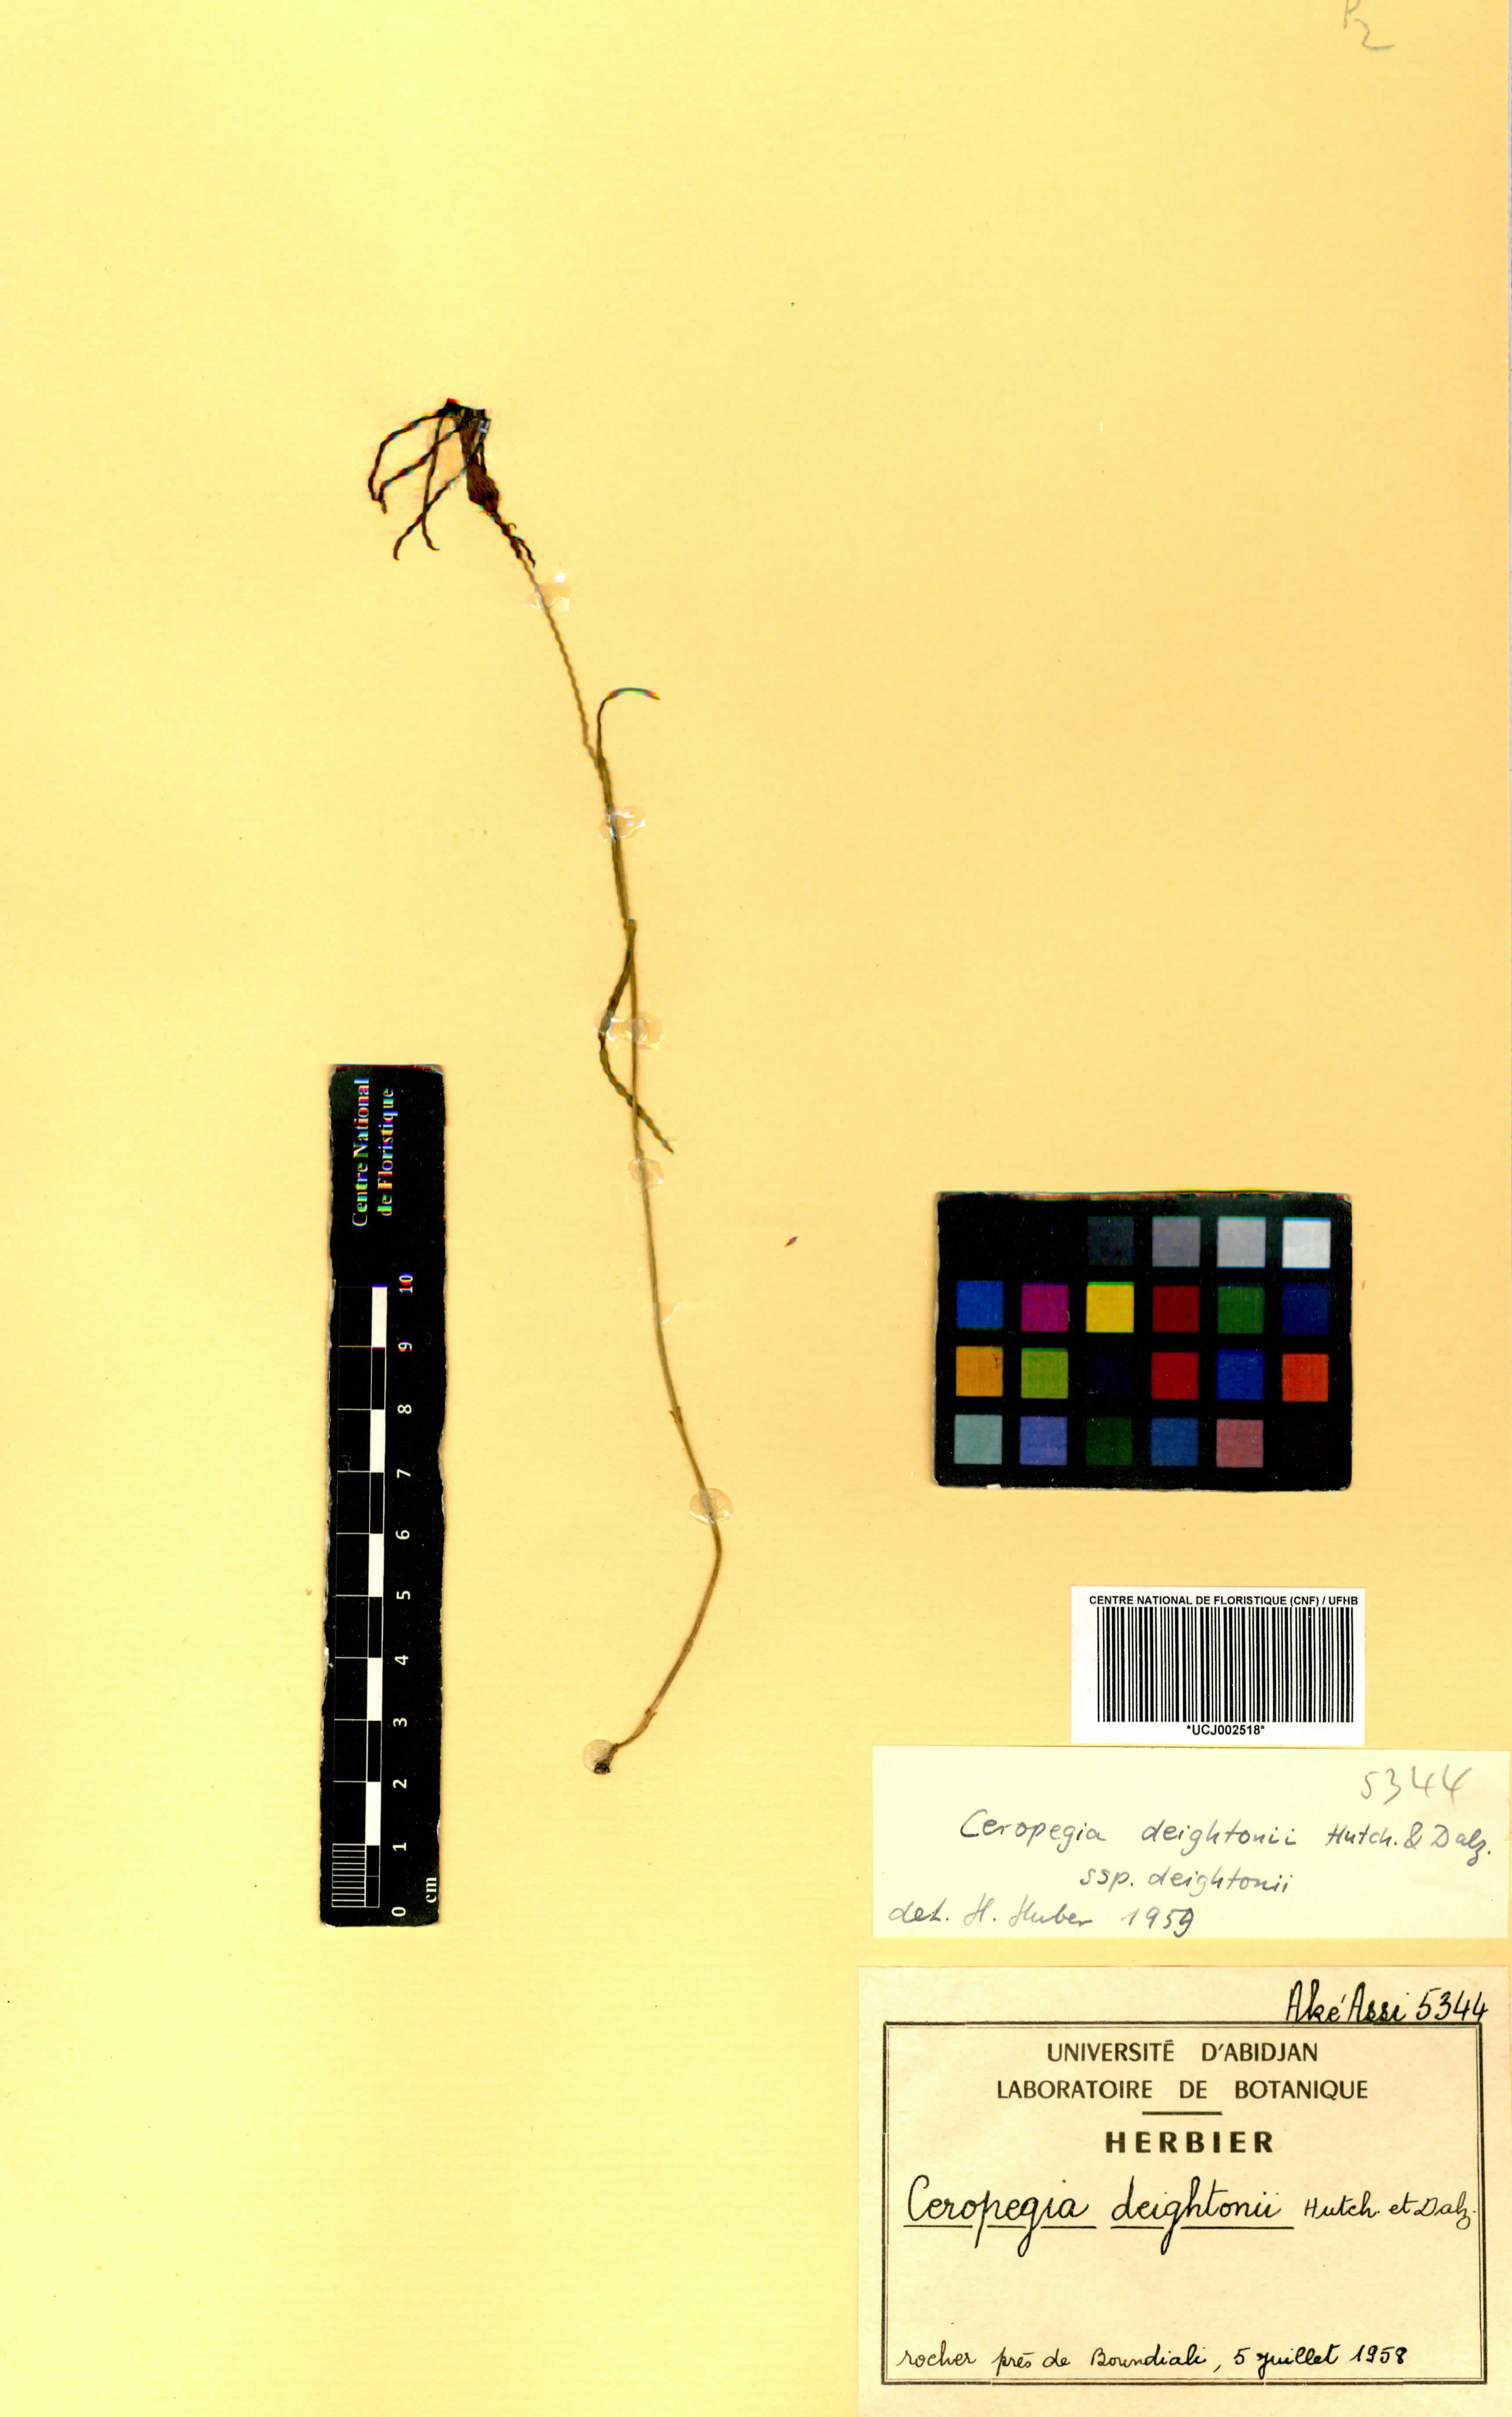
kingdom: Plantae
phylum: Tracheophyta
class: Magnoliopsida
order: Gentianales
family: Apocynaceae
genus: Ceropegia
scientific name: Ceropegia deightonii
